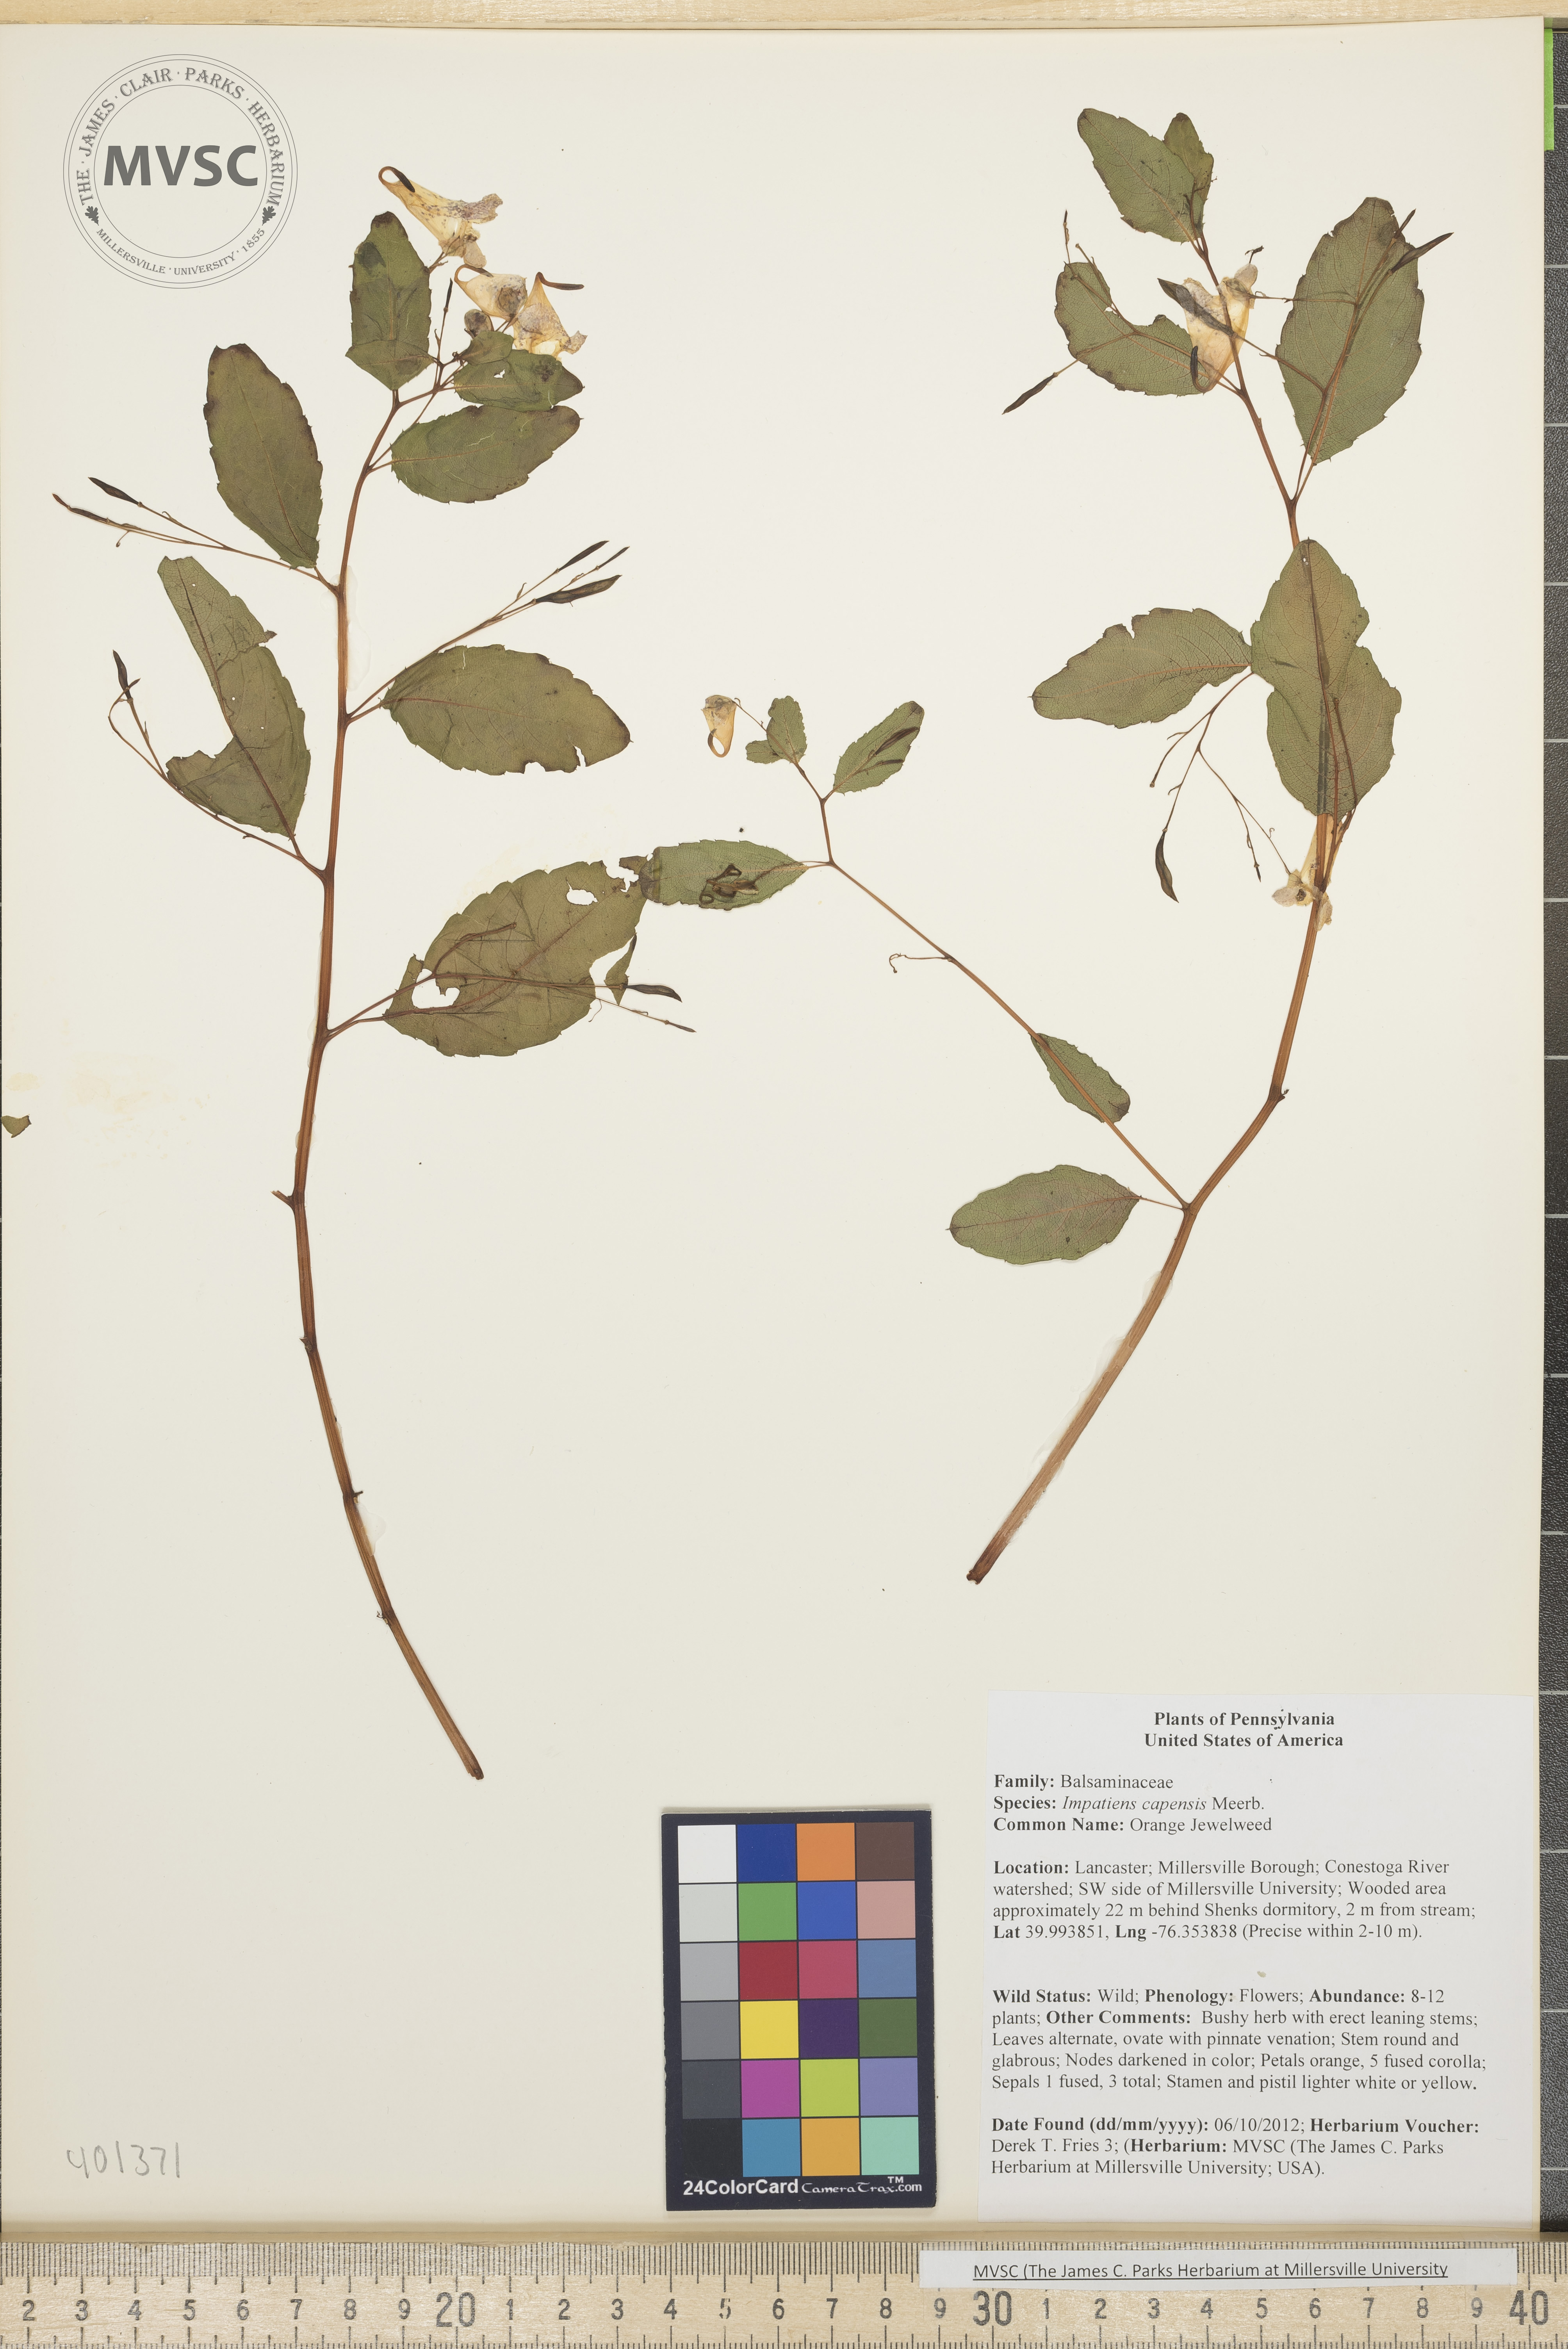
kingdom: Plantae
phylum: Tracheophyta
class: Magnoliopsida
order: Ericales
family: Balsaminaceae
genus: Impatiens
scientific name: Impatiens capensis
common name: Orange Jewelweed
